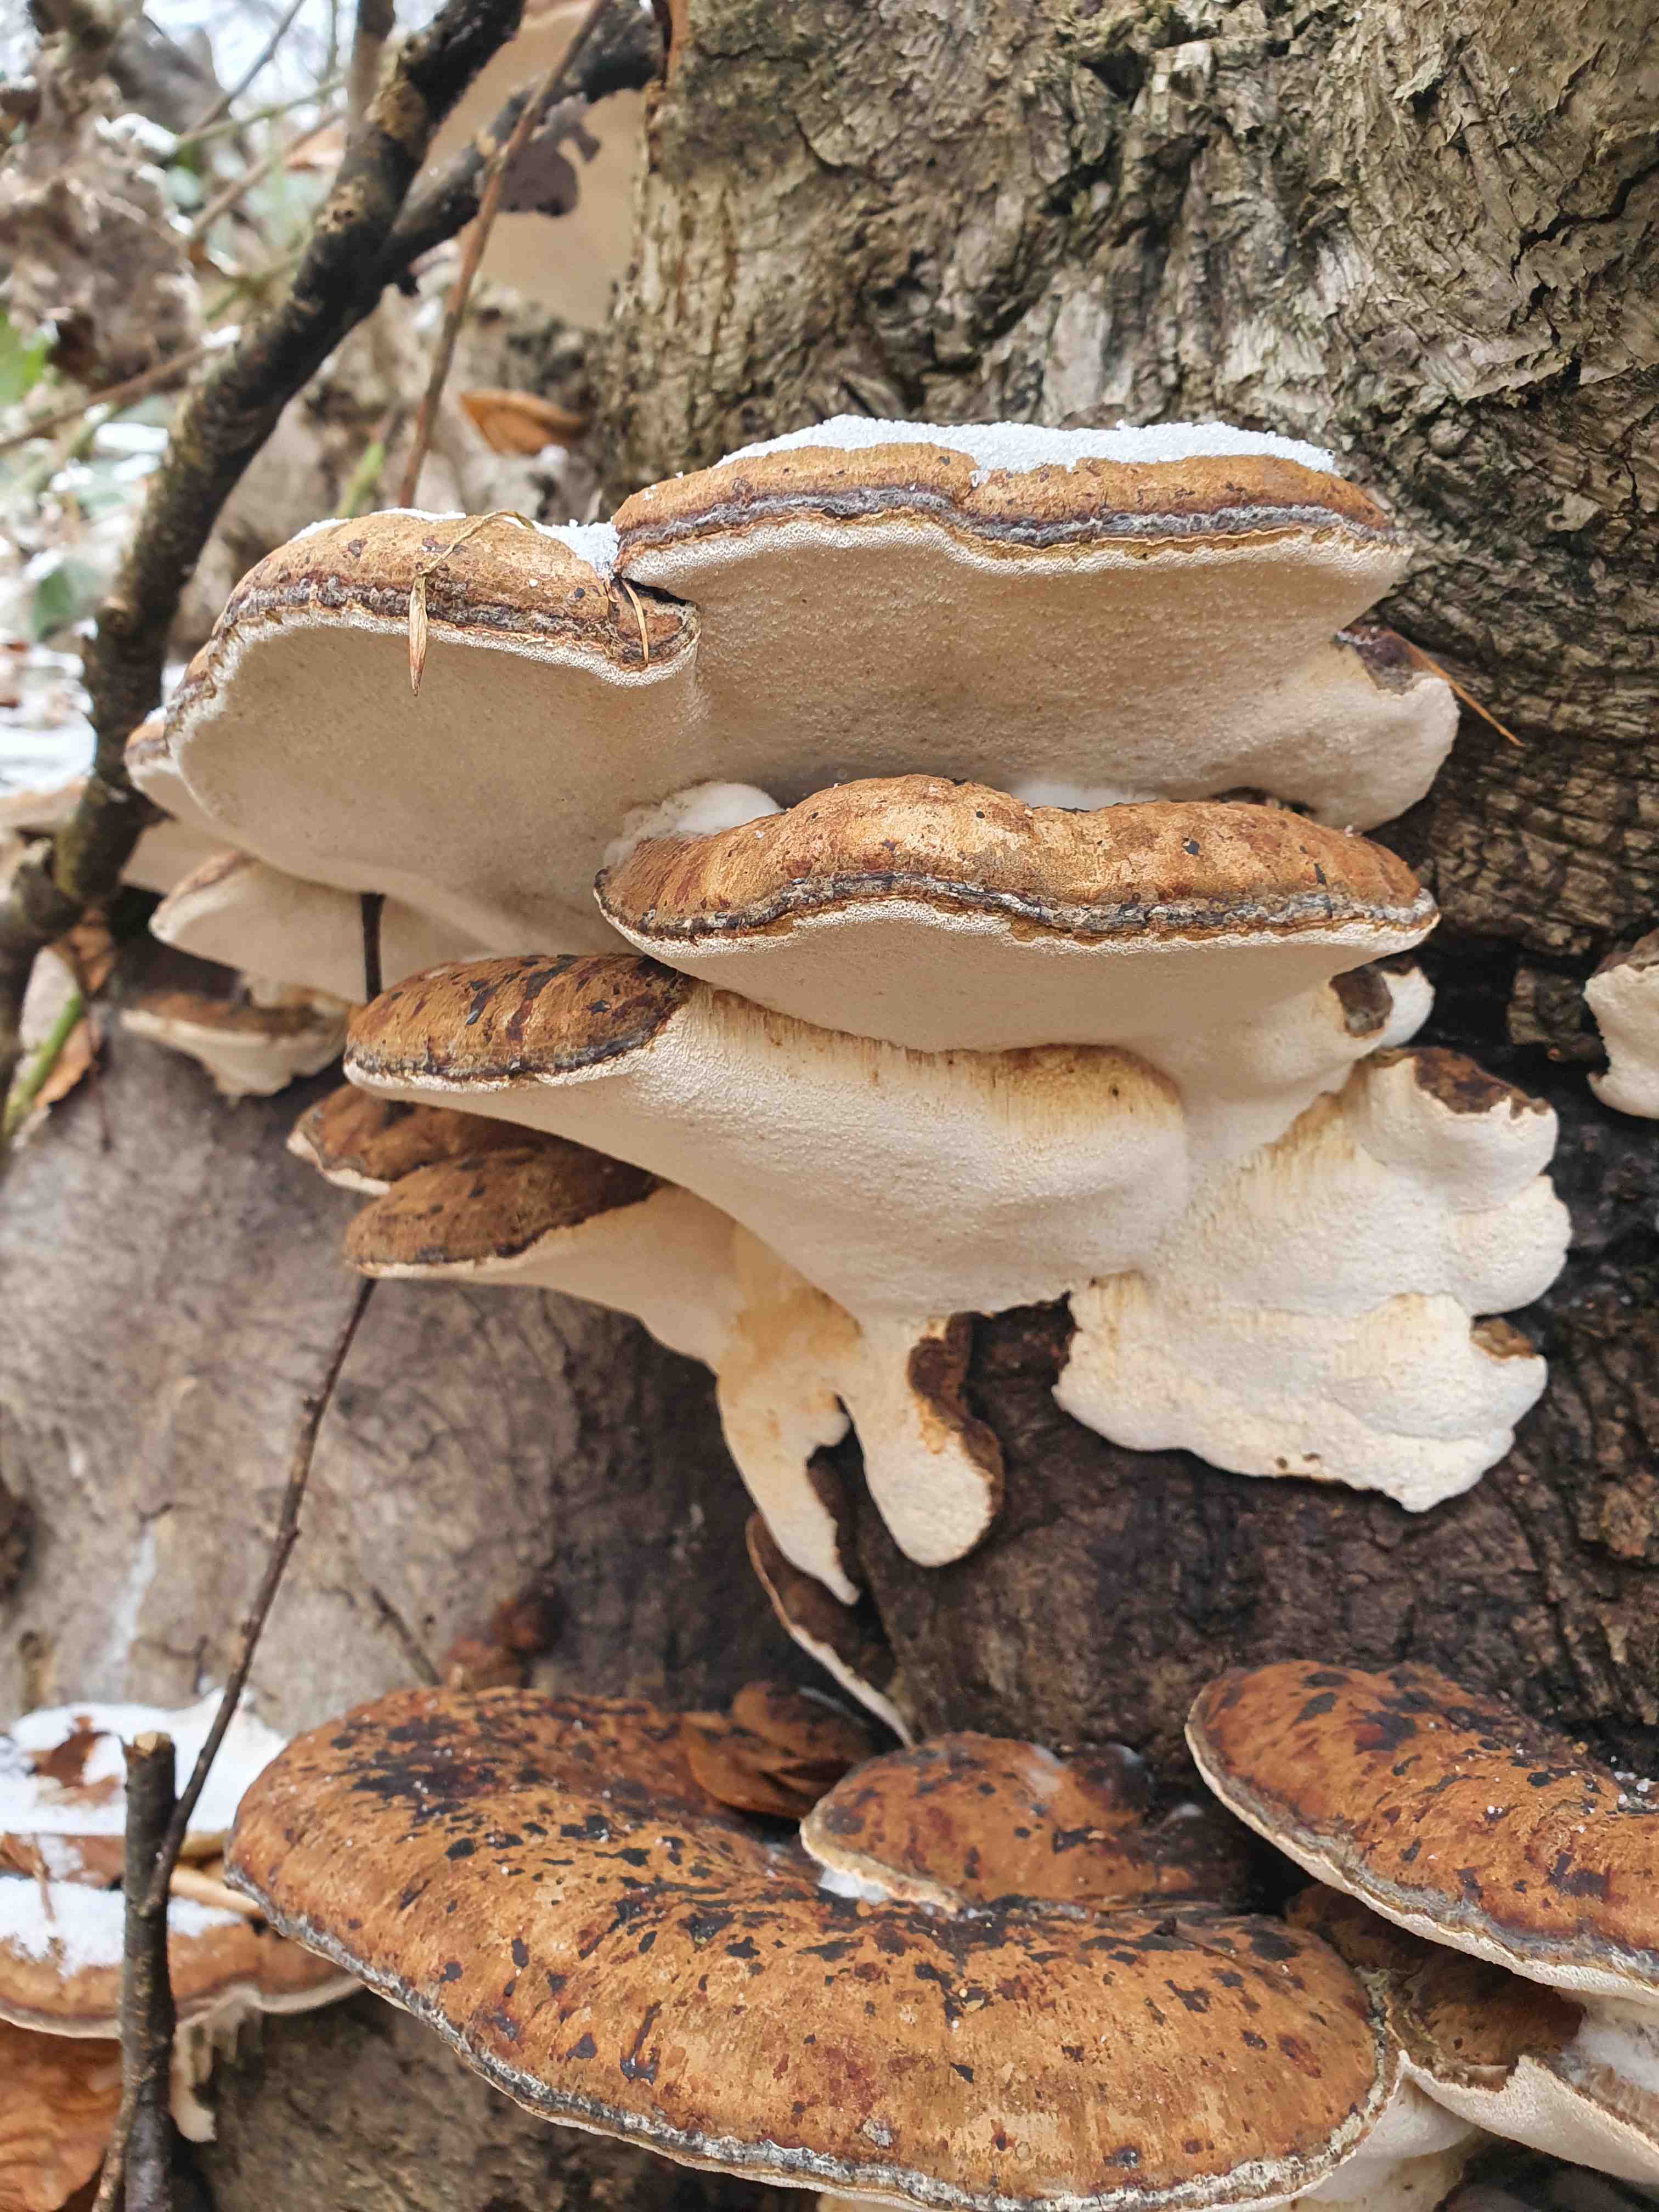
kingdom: Fungi
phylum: Basidiomycota
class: Agaricomycetes
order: Polyporales
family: Ischnodermataceae
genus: Ischnoderma
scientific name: Ischnoderma resinosum
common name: løv-tjæreporesvamp
